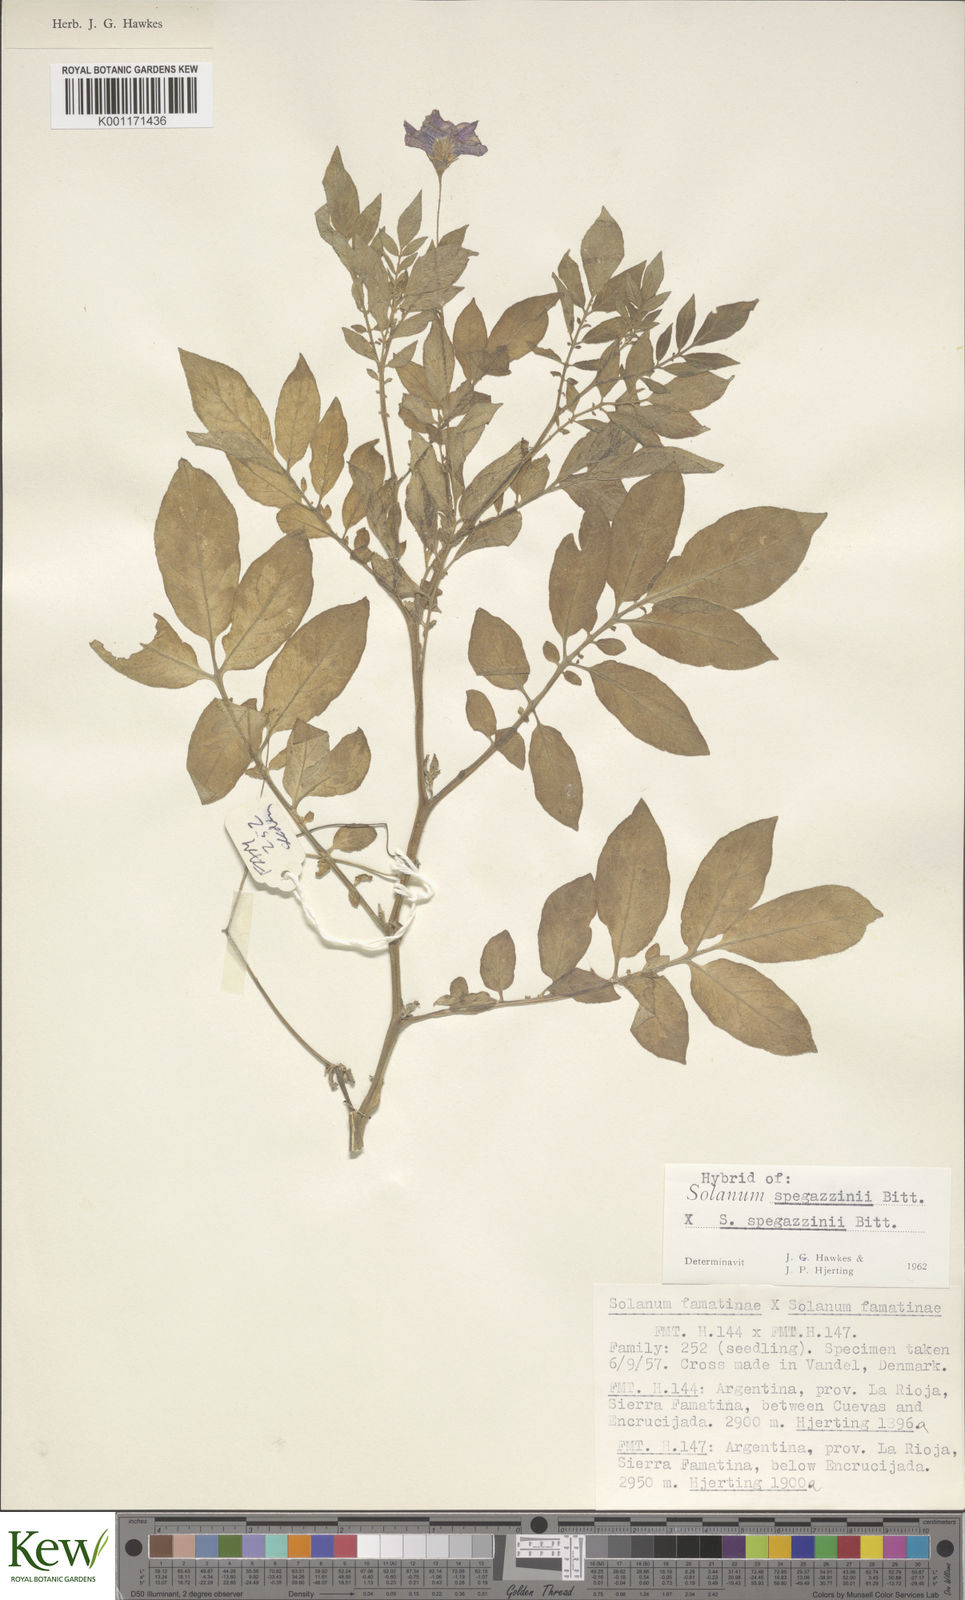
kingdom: Plantae
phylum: Tracheophyta
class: Magnoliopsida
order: Solanales
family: Solanaceae
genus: Solanum
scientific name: Solanum brevicaule
